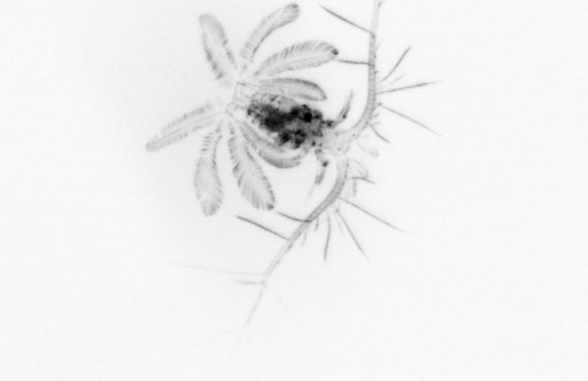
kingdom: Animalia
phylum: Arthropoda
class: Copepoda
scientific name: Copepoda
